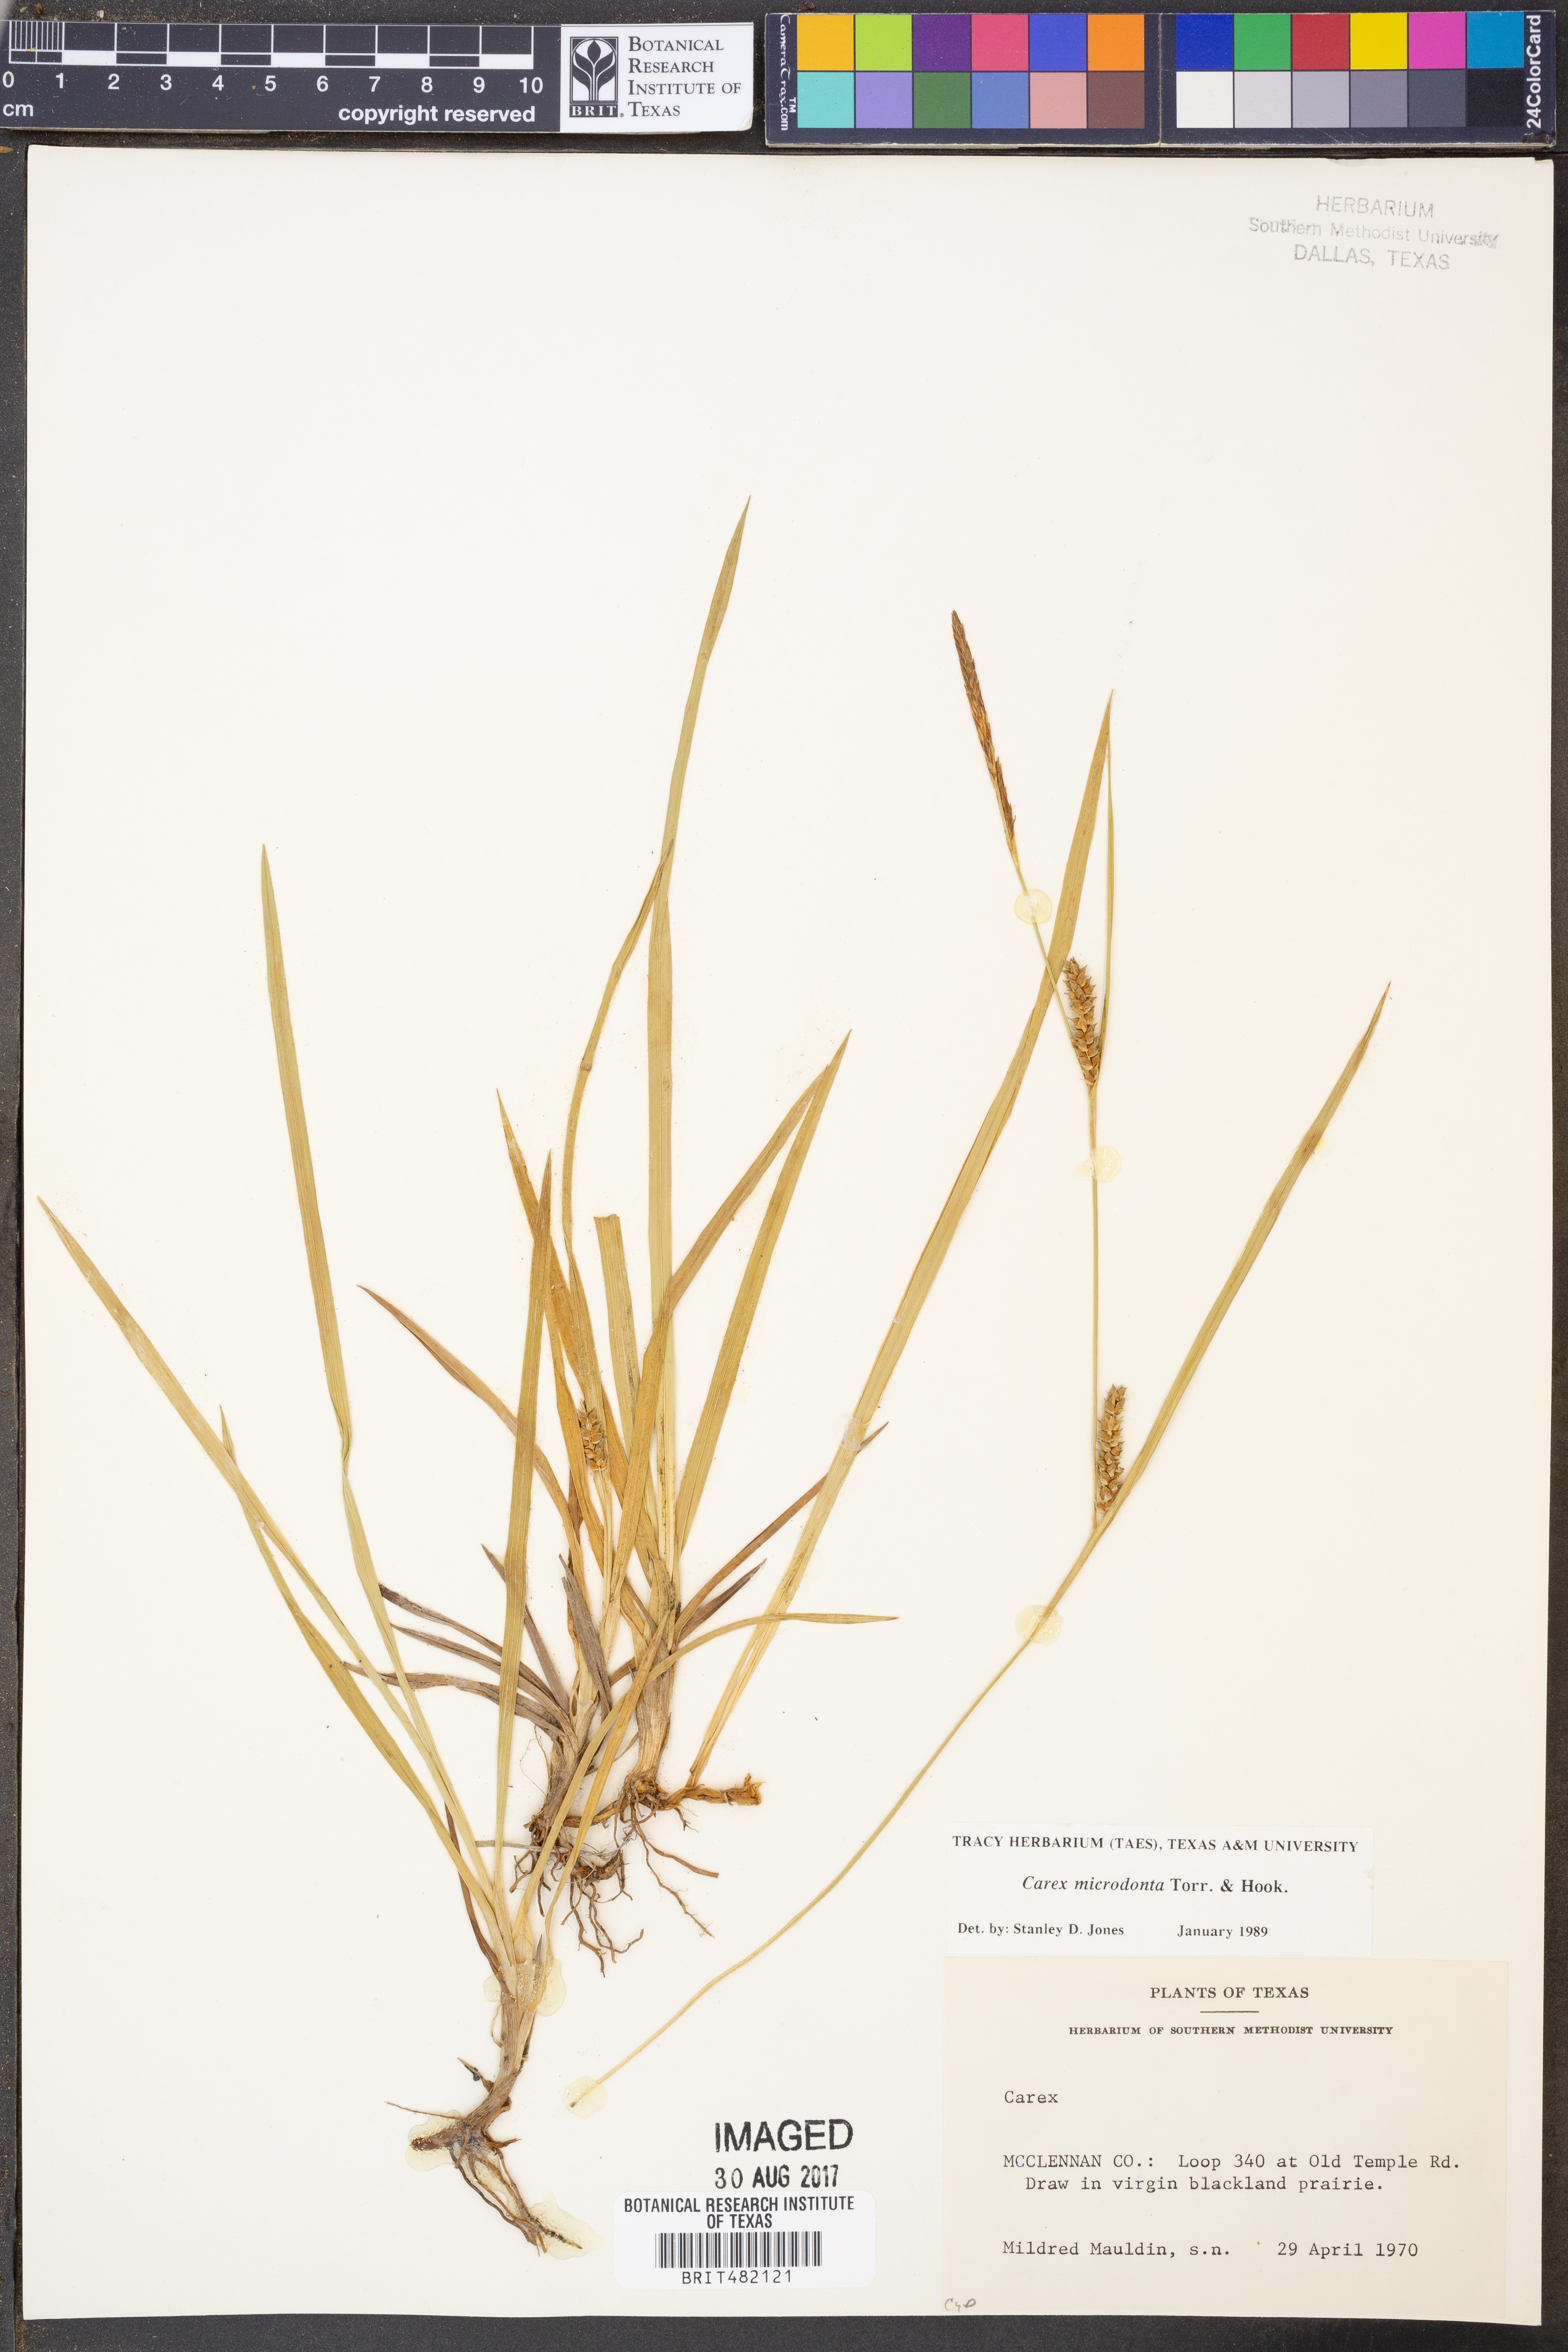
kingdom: Plantae
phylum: Tracheophyta
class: Liliopsida
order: Poales
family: Cyperaceae
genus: Carex
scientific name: Carex microdonta
